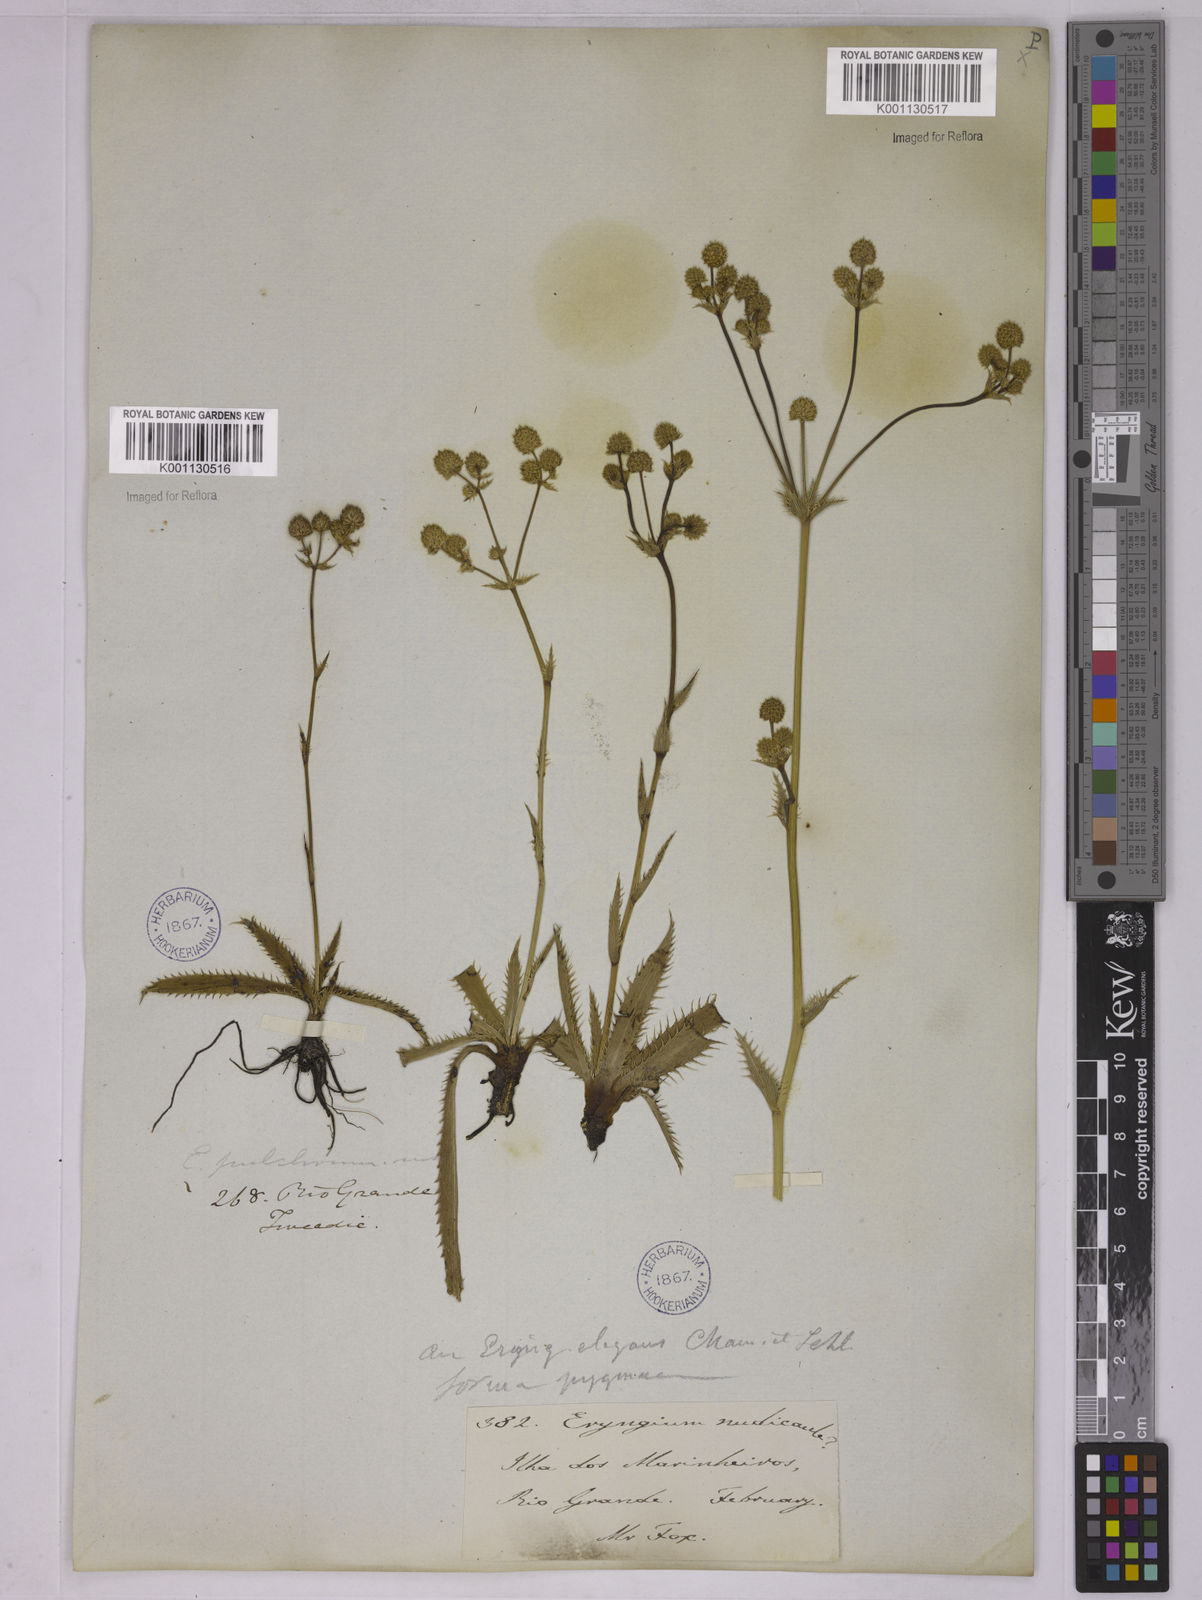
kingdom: Plantae
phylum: Tracheophyta
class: Magnoliopsida
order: Apiales
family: Apiaceae
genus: Eryngium
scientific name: Eryngium elegans
